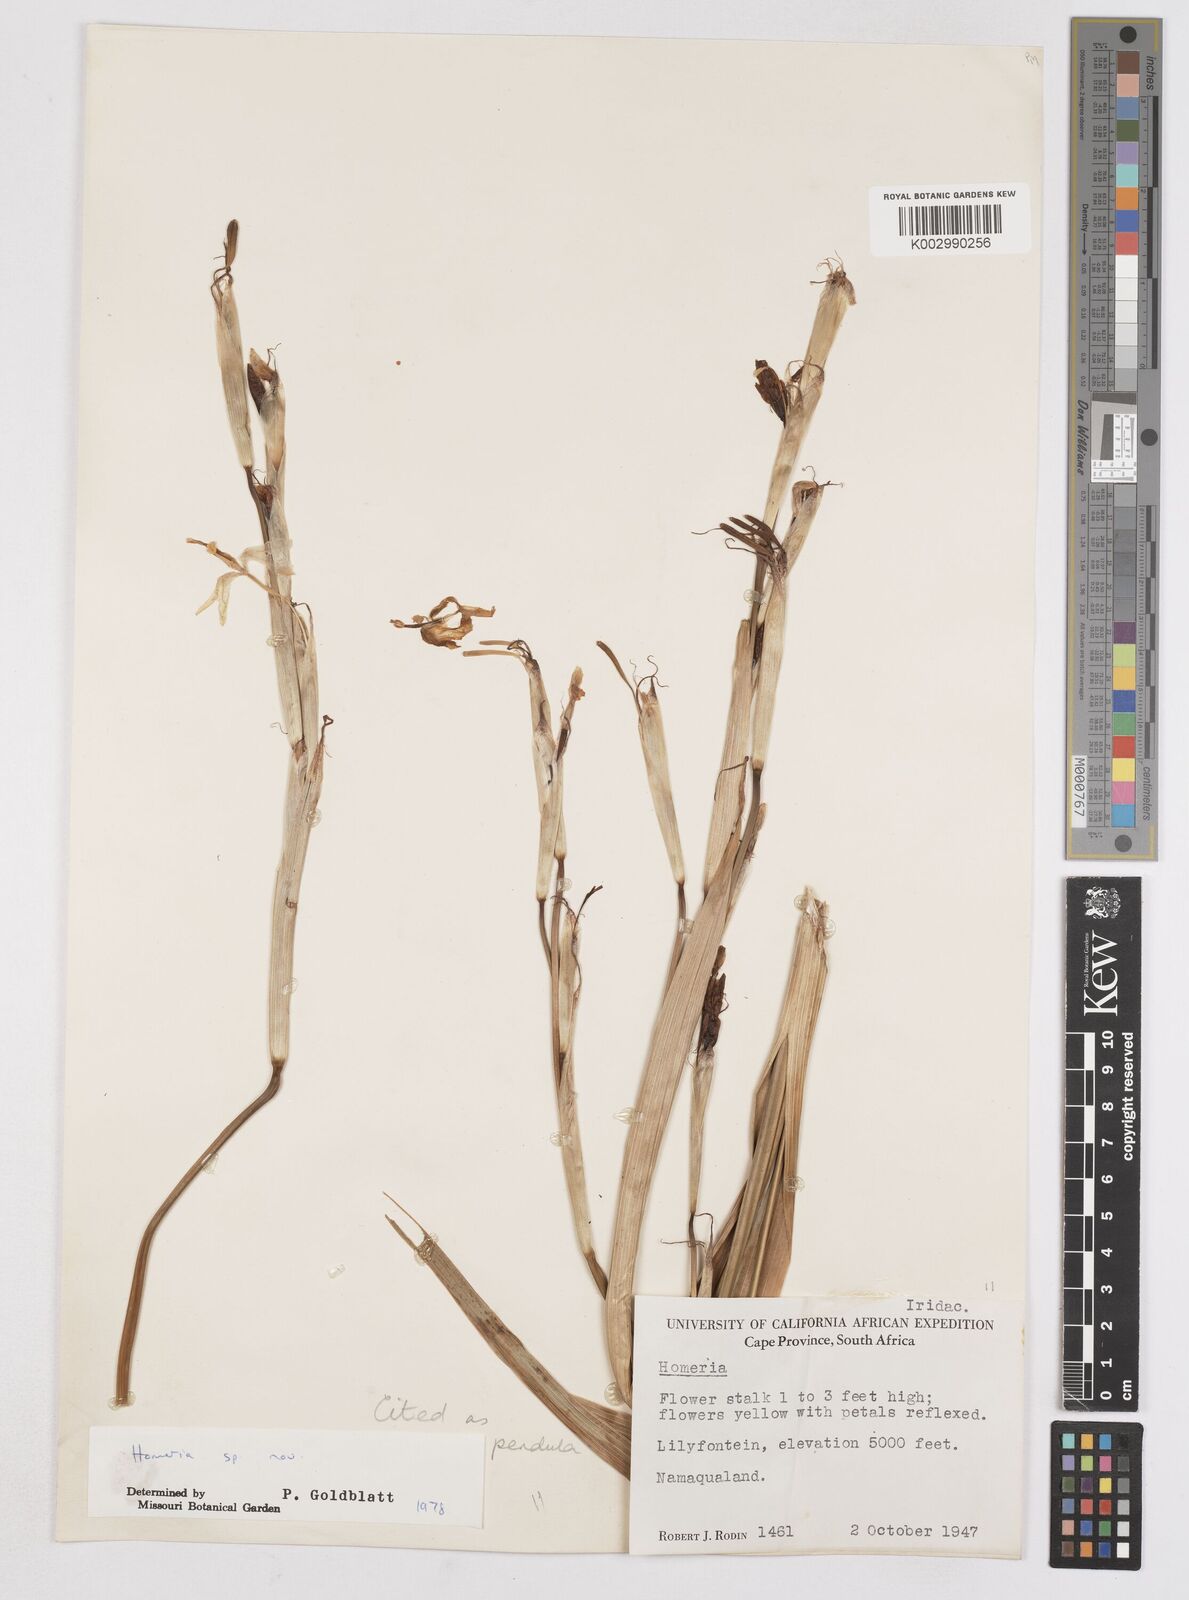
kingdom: Plantae
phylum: Tracheophyta
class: Liliopsida
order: Asparagales
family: Iridaceae
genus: Moraea
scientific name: Moraea pendula
